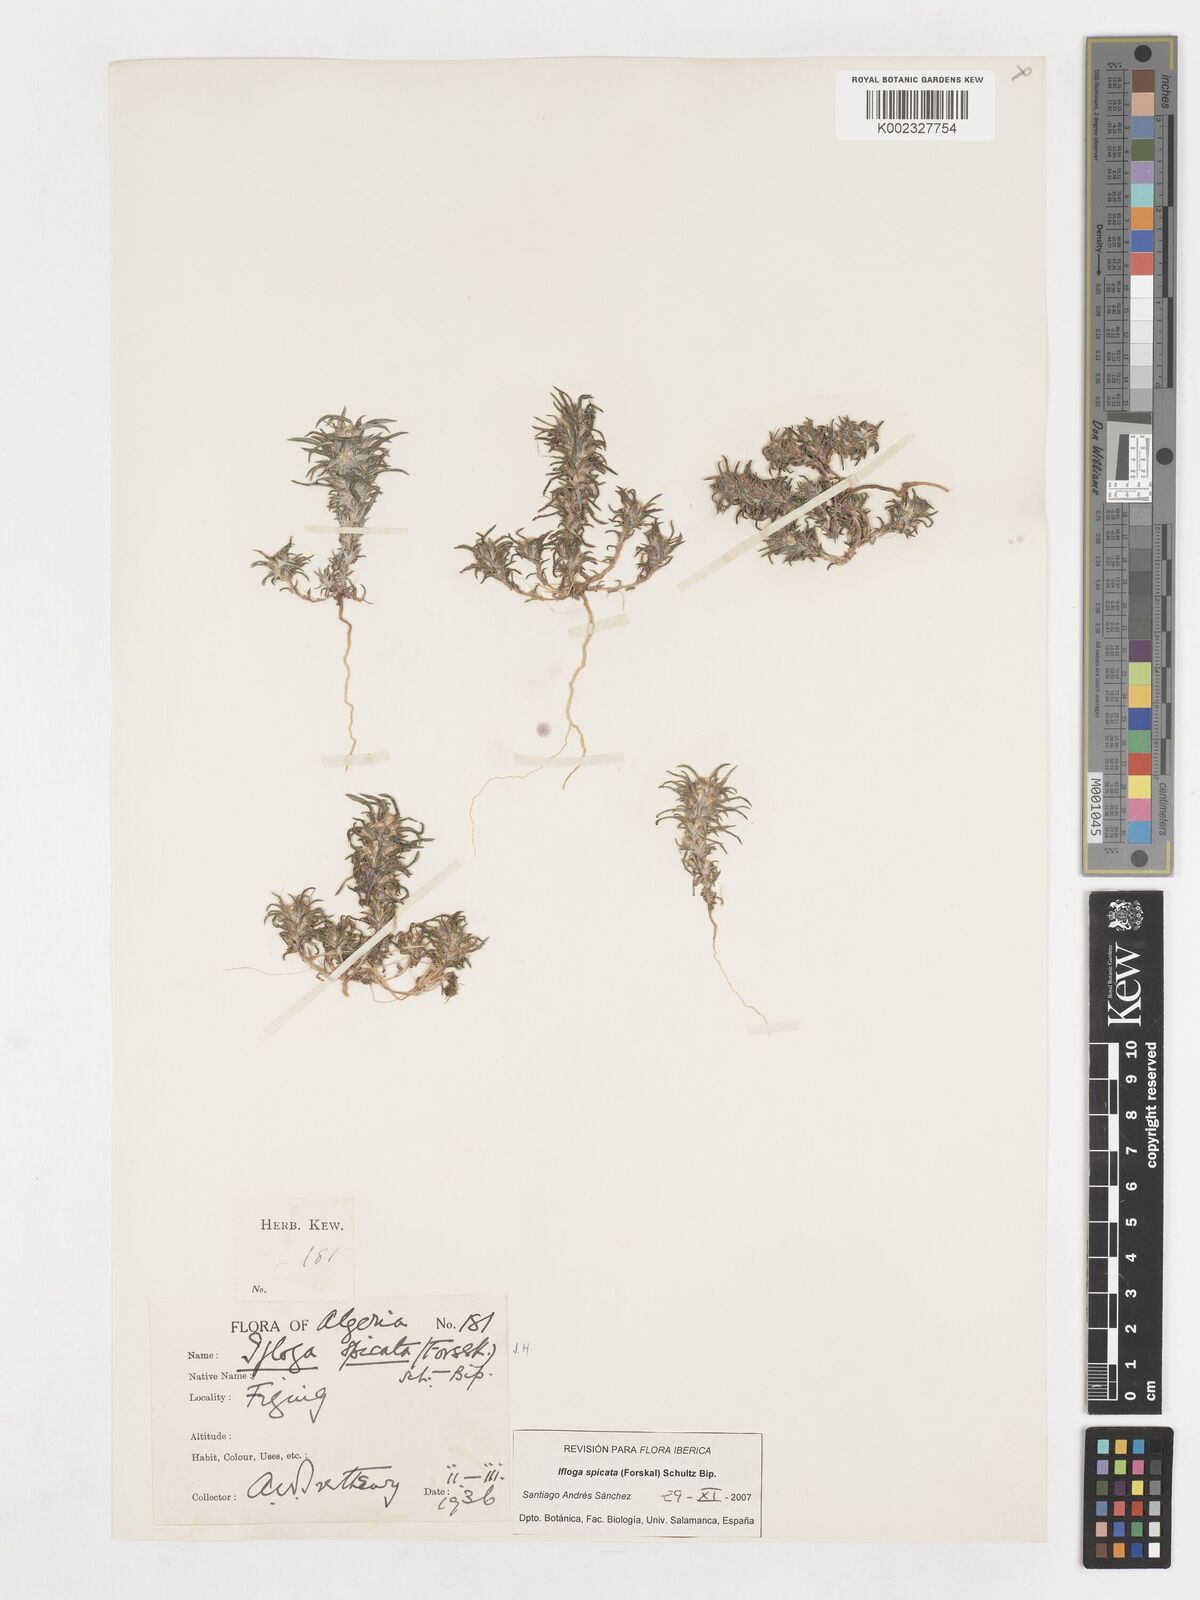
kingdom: Plantae
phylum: Tracheophyta
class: Magnoliopsida
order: Asterales
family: Asteraceae
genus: Ifloga
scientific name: Ifloga spicata
